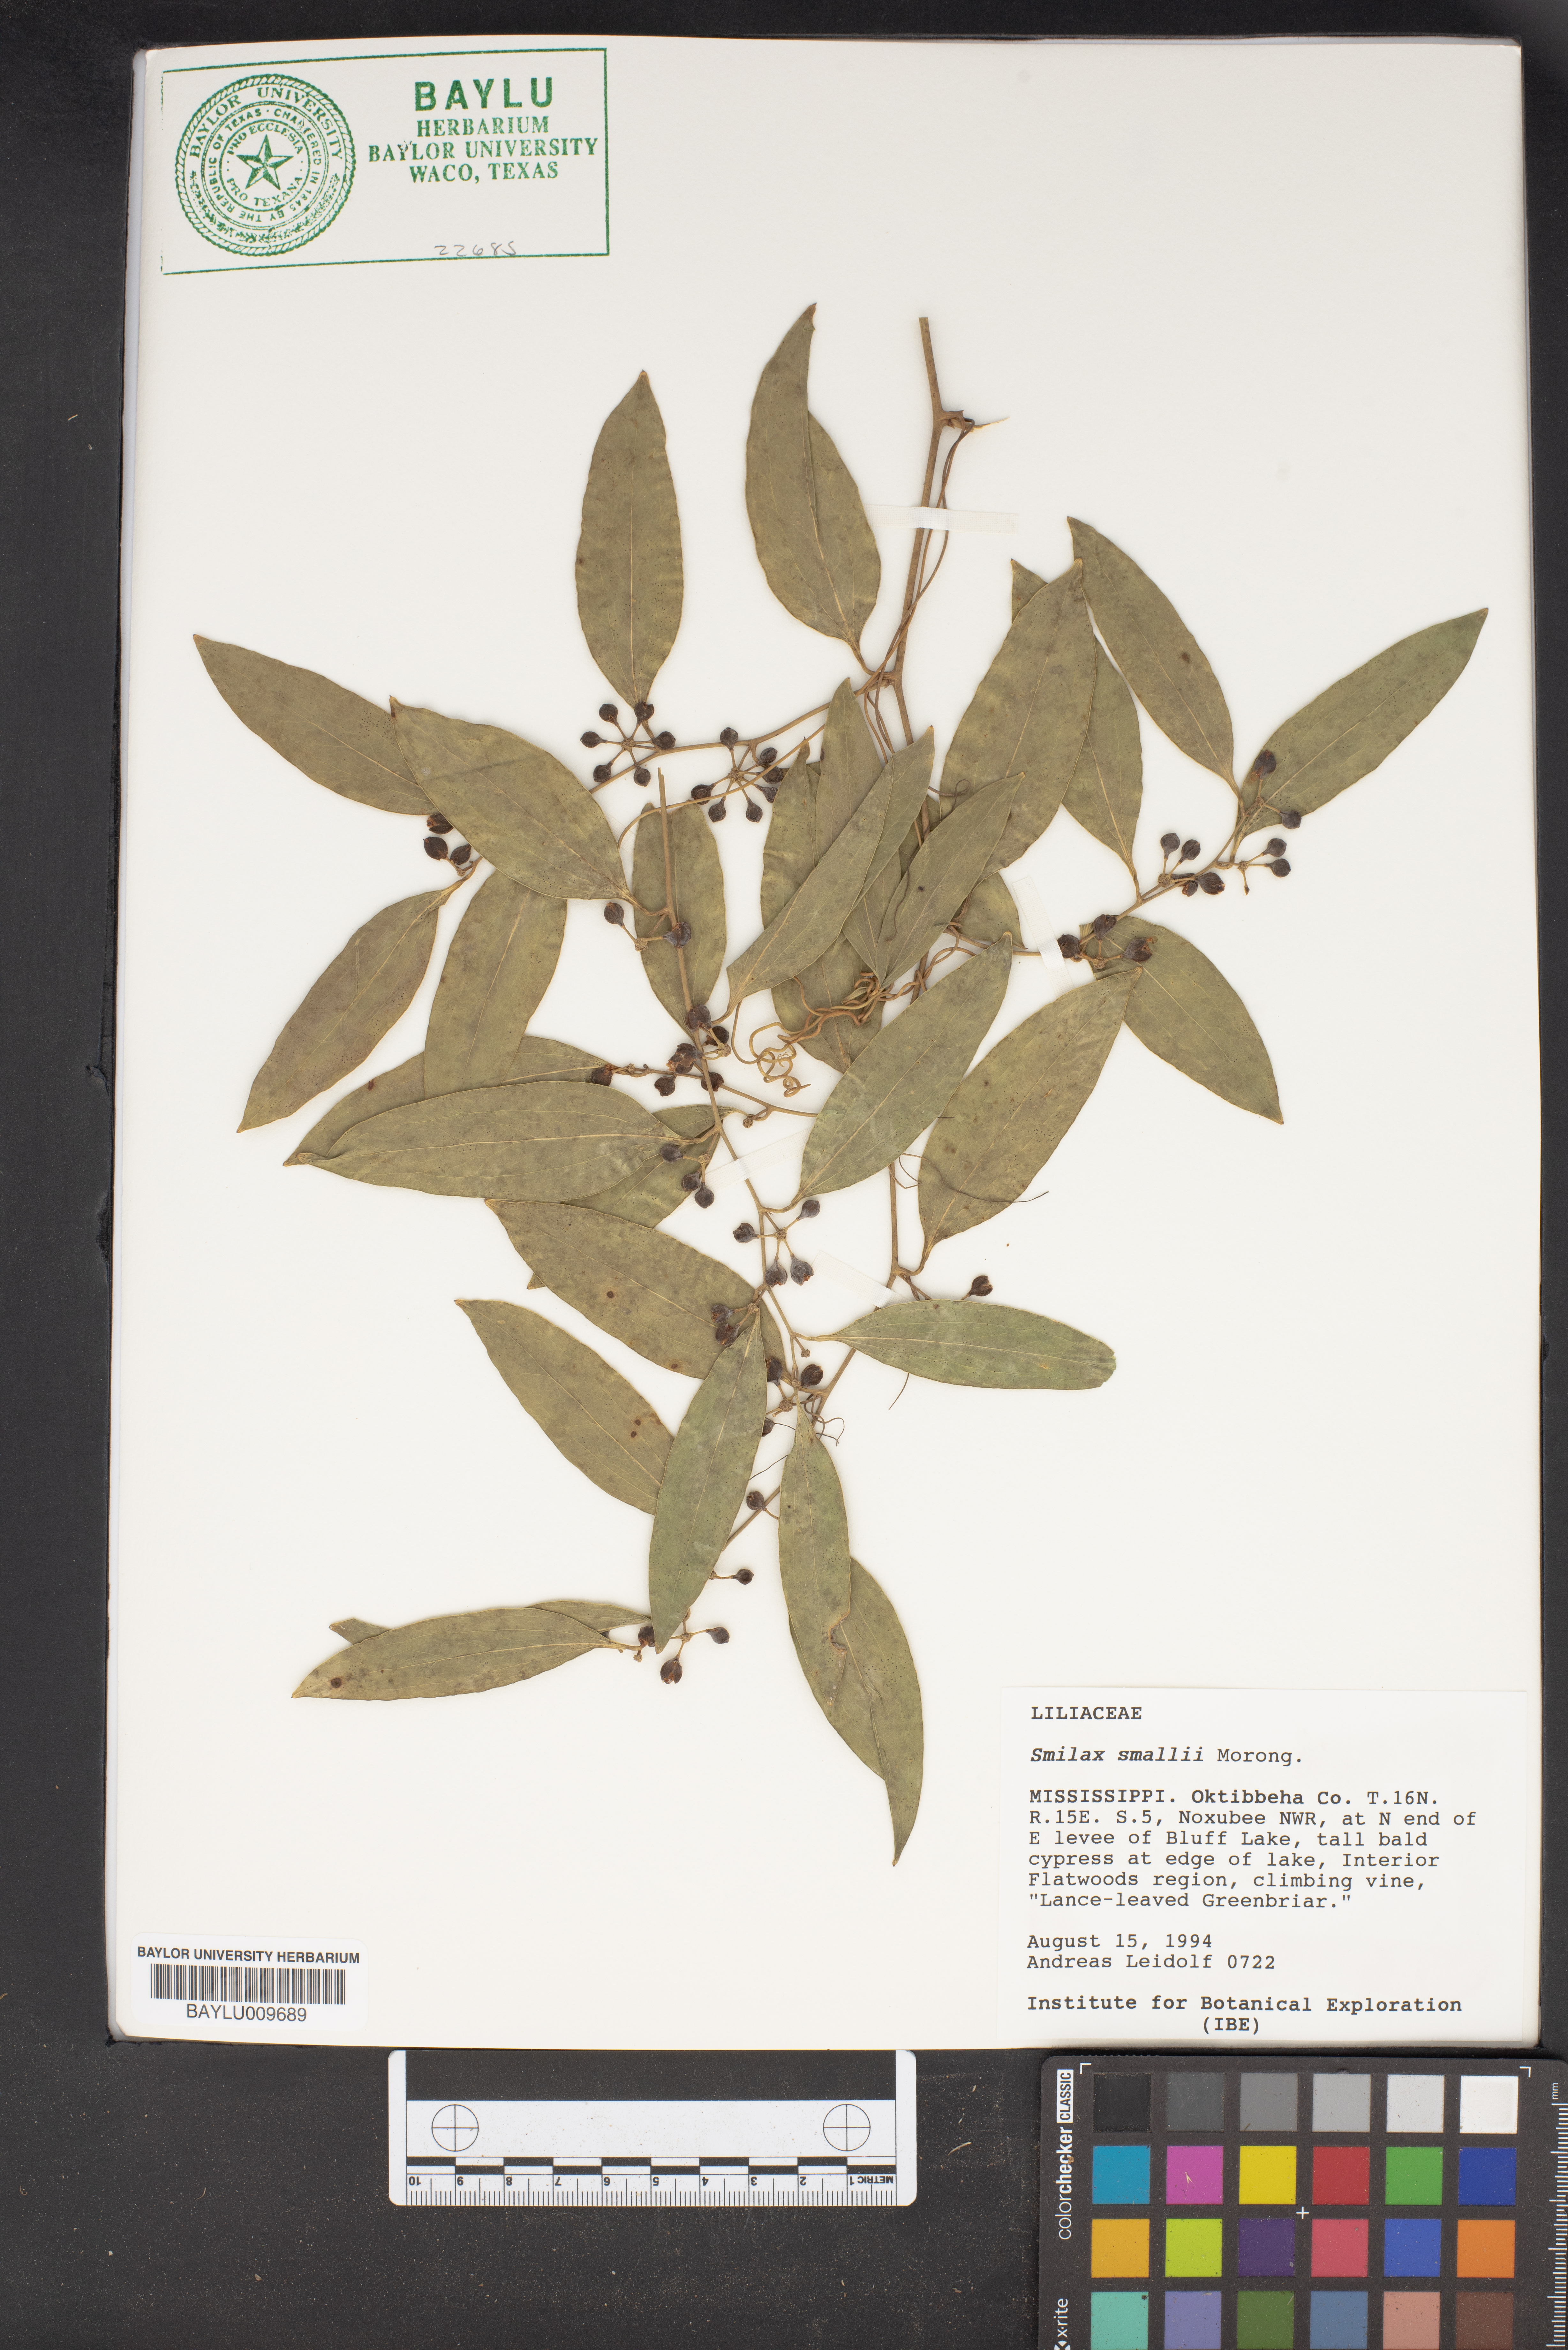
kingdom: Plantae
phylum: Tracheophyta
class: Liliopsida
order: Liliales
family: Smilacaceae
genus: Smilax
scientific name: Smilax maritima
